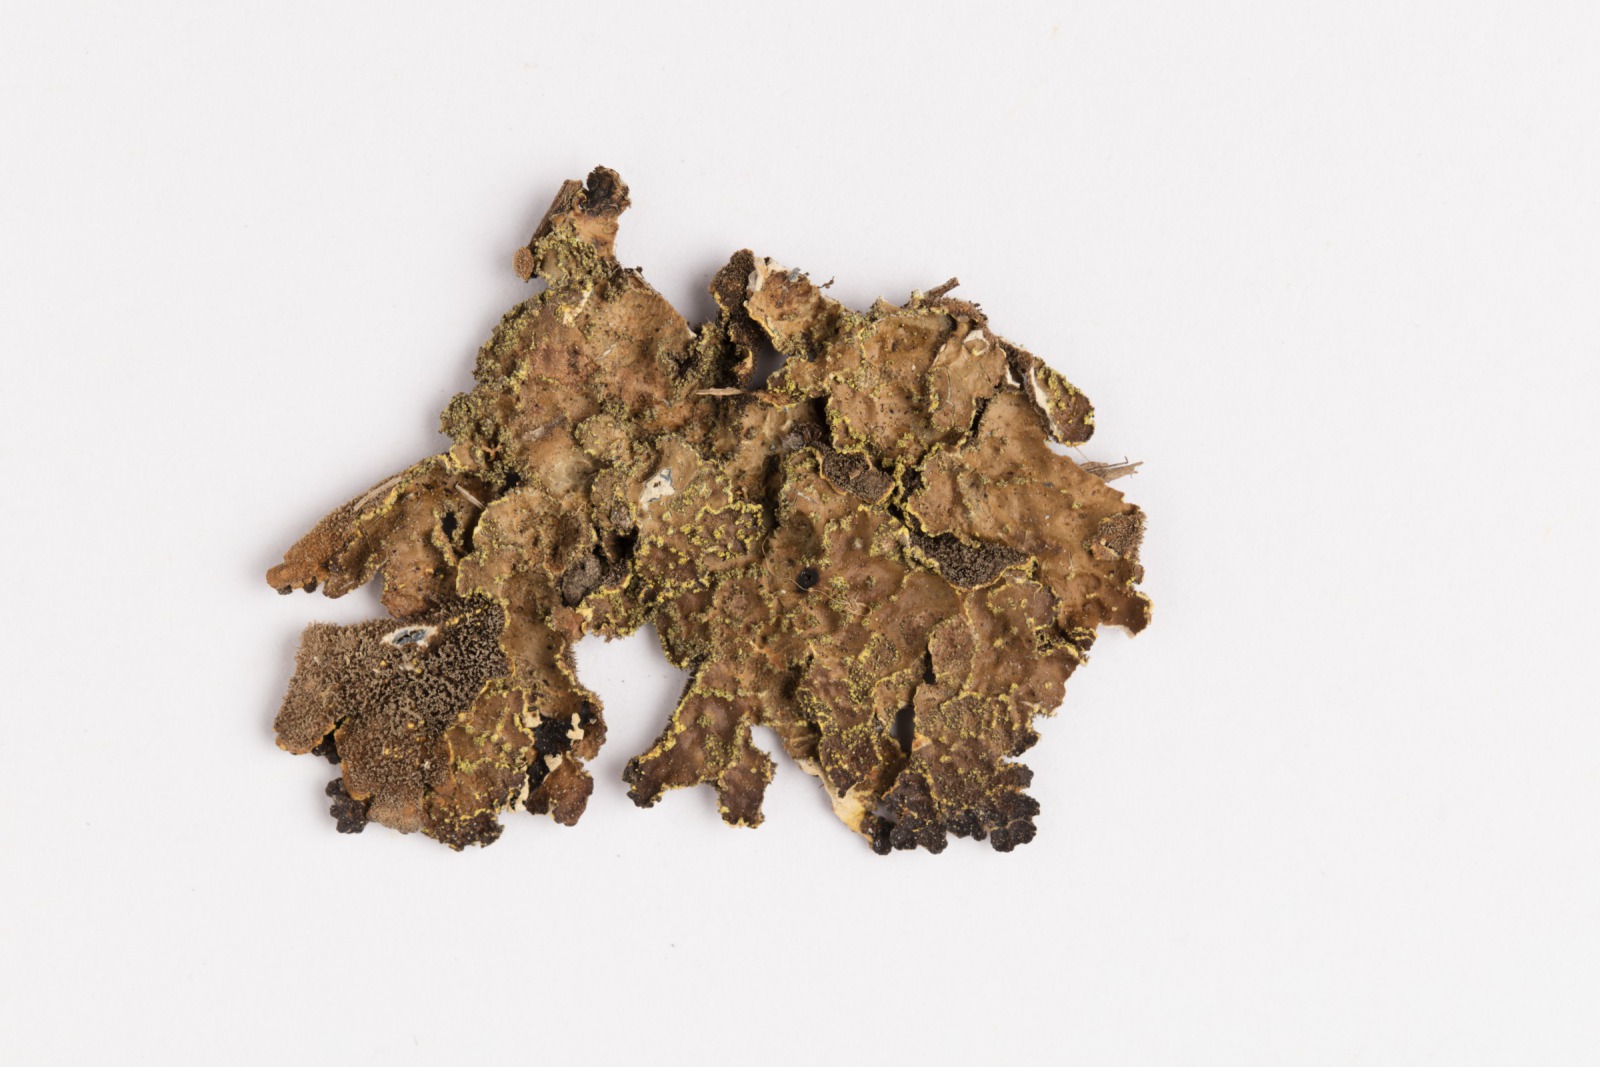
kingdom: Fungi
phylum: Ascomycota
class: Lecanoromycetes
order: Peltigerales
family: Lobariaceae
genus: Pseudocyphellaria
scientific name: Pseudocyphellaria crocata
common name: Golden specklebelly
